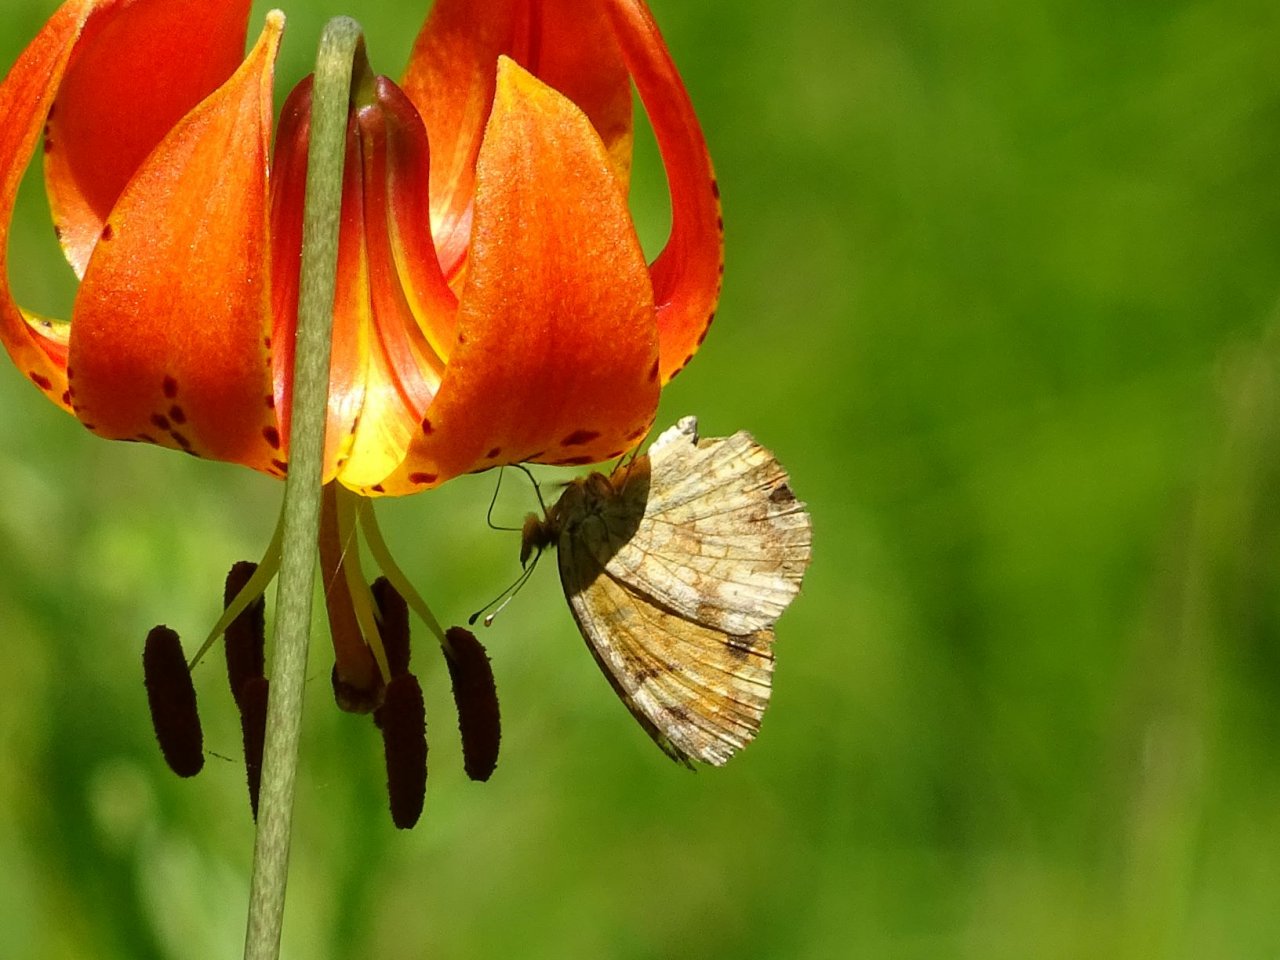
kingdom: Animalia
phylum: Arthropoda
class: Insecta
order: Lepidoptera
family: Nymphalidae
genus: Phyciodes
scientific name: Phyciodes tharos
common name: Pearl Crescent
